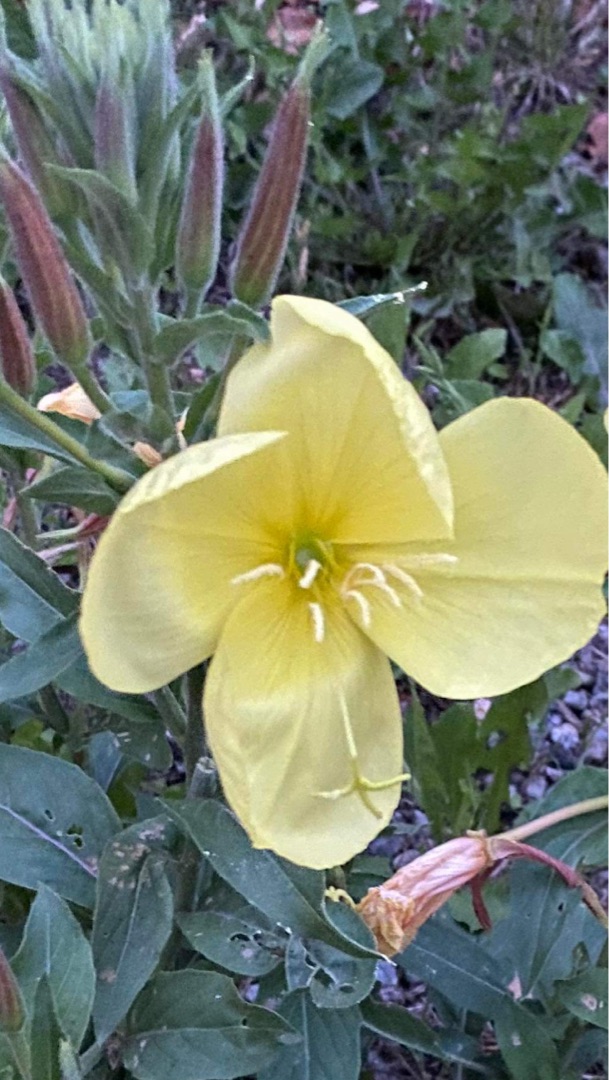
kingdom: Plantae
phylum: Tracheophyta
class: Magnoliopsida
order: Myrtales
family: Onagraceae
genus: Oenothera
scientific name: Oenothera glazioviana
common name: Kæmpe-natlys
